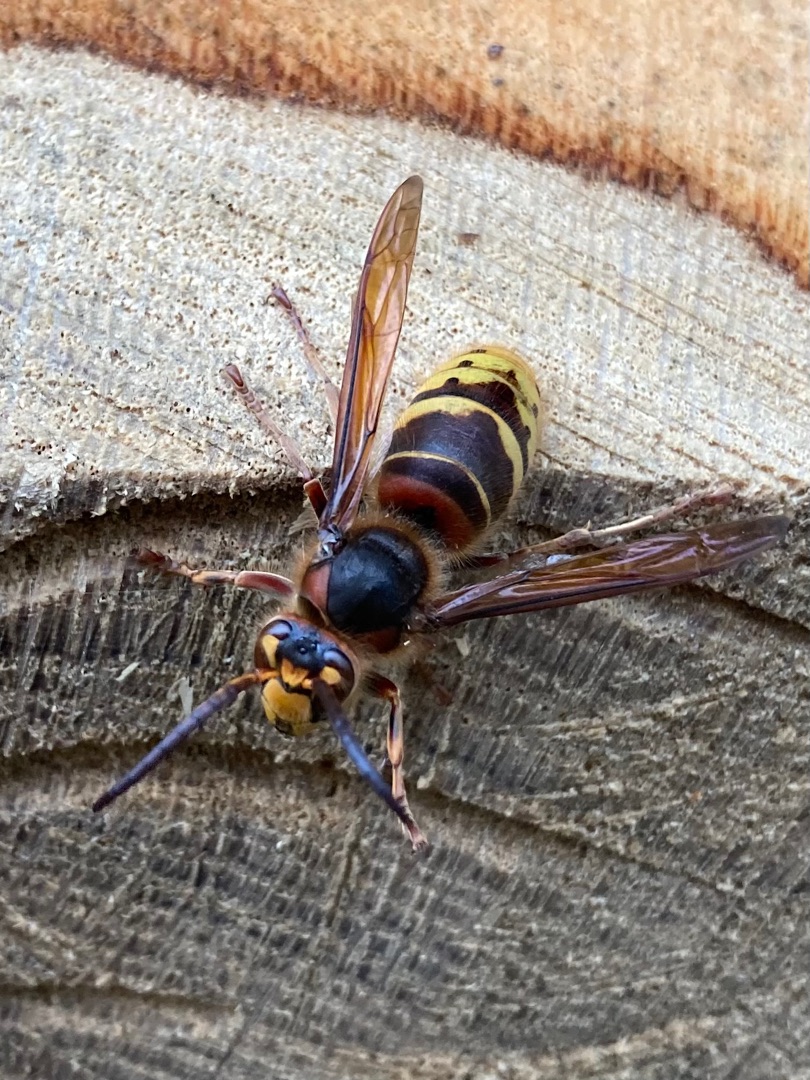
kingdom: Animalia
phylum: Arthropoda
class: Insecta
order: Hymenoptera
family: Vespidae
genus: Vespa
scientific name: Vespa crabro
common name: Stor gedehams
